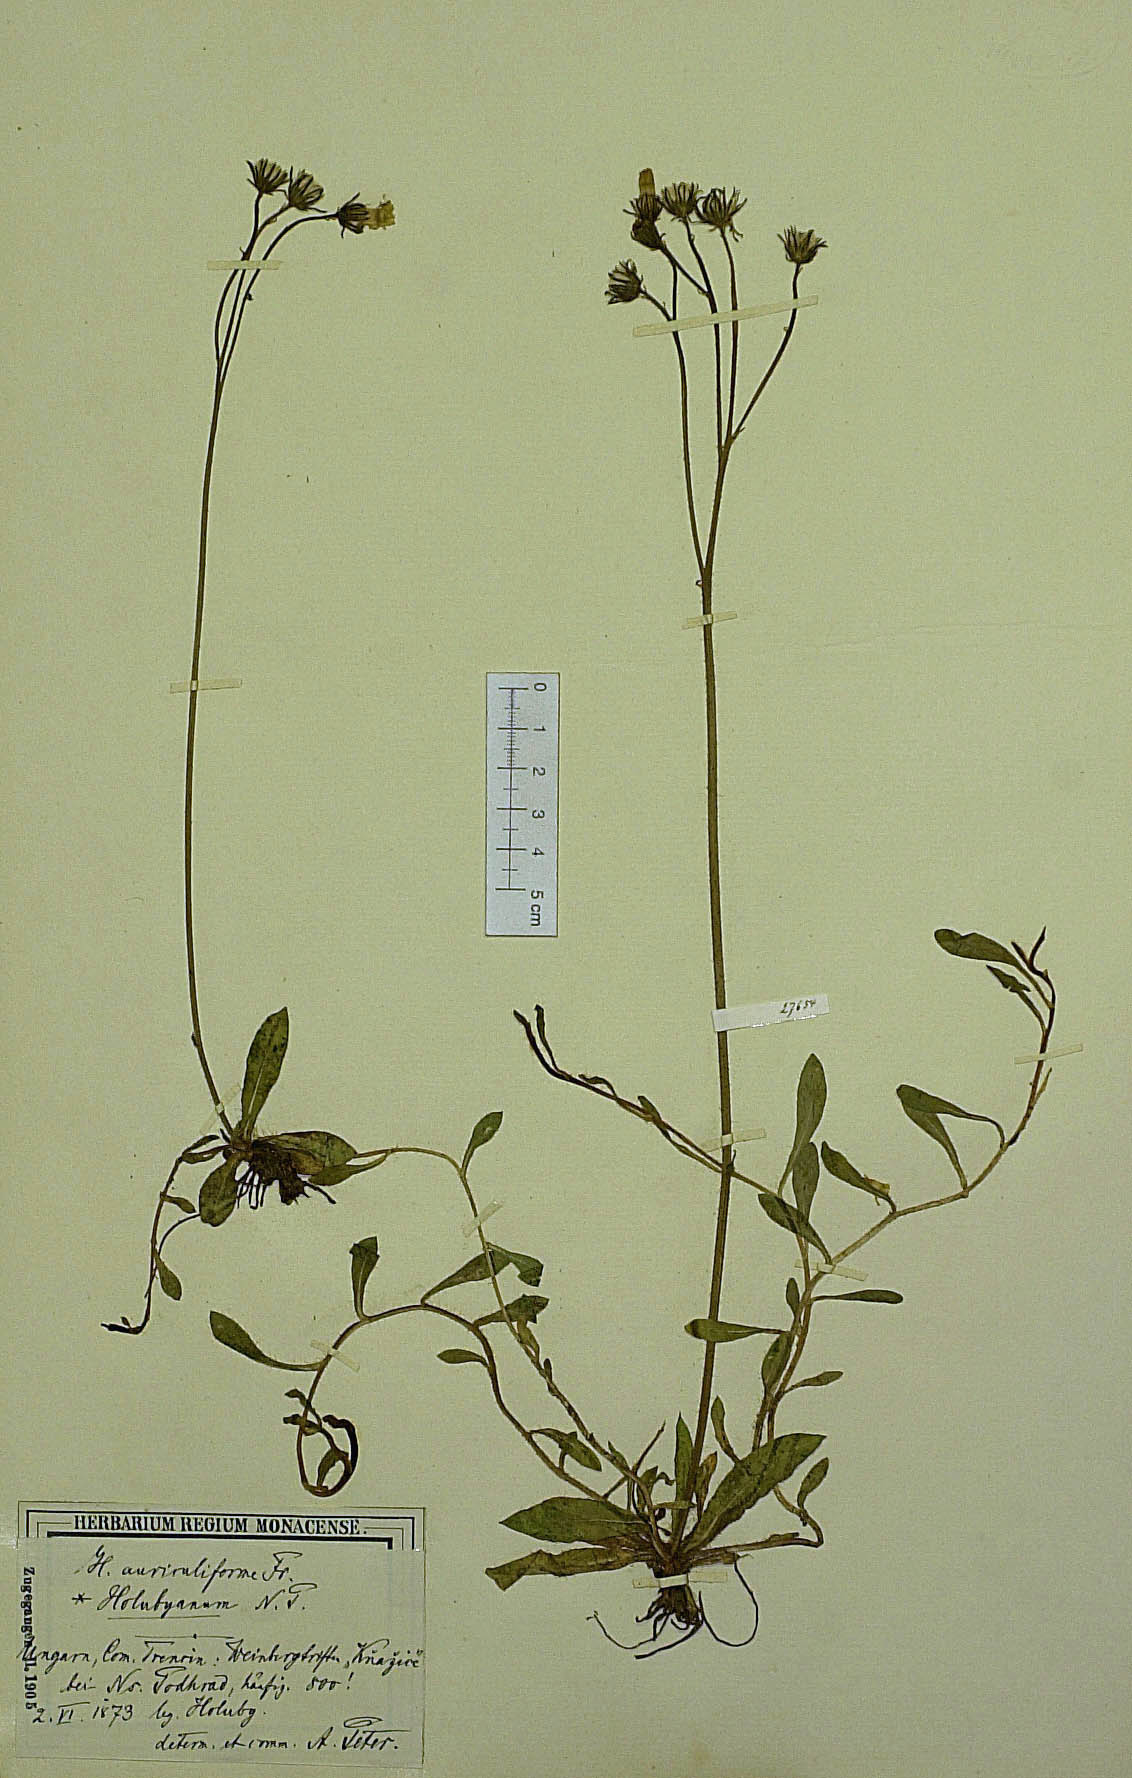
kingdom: Plantae
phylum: Tracheophyta
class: Magnoliopsida
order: Asterales
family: Asteraceae
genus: Pilosella
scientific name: Pilosella auriculiformis
